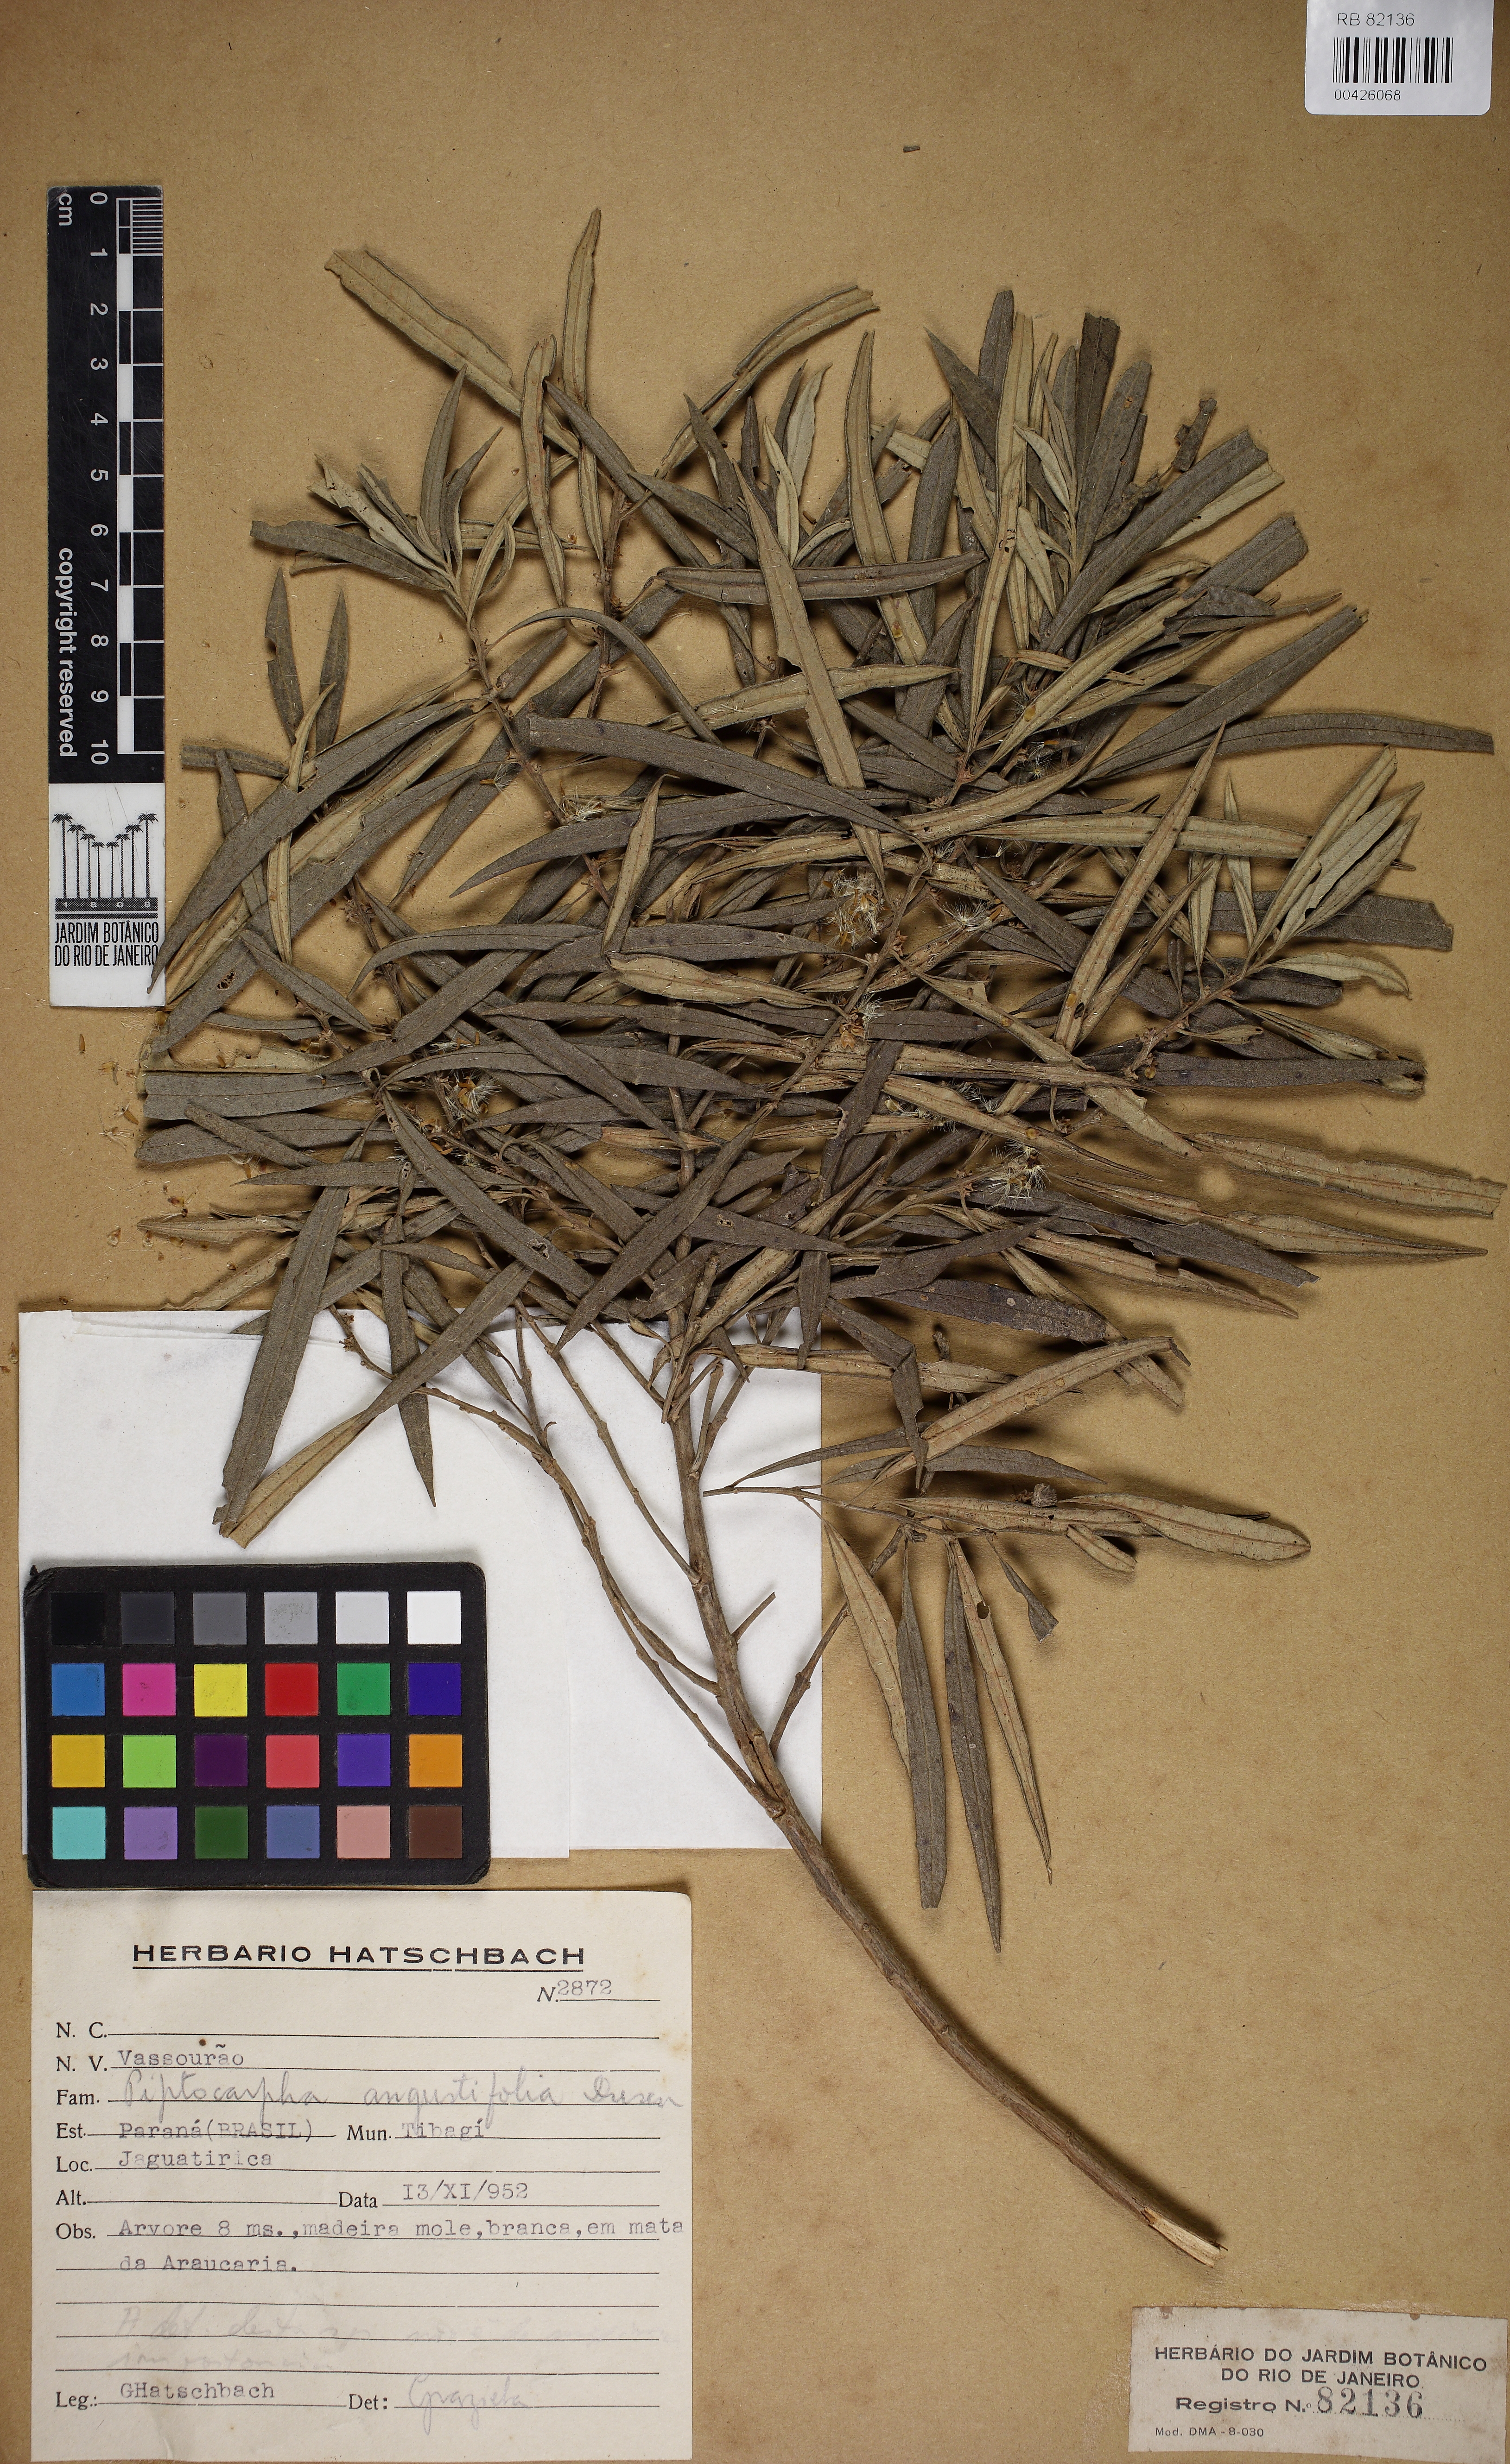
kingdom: Plantae
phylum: Tracheophyta
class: Magnoliopsida
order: Asterales
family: Asteraceae
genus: Piptocarpha
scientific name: Piptocarpha angustifolia
